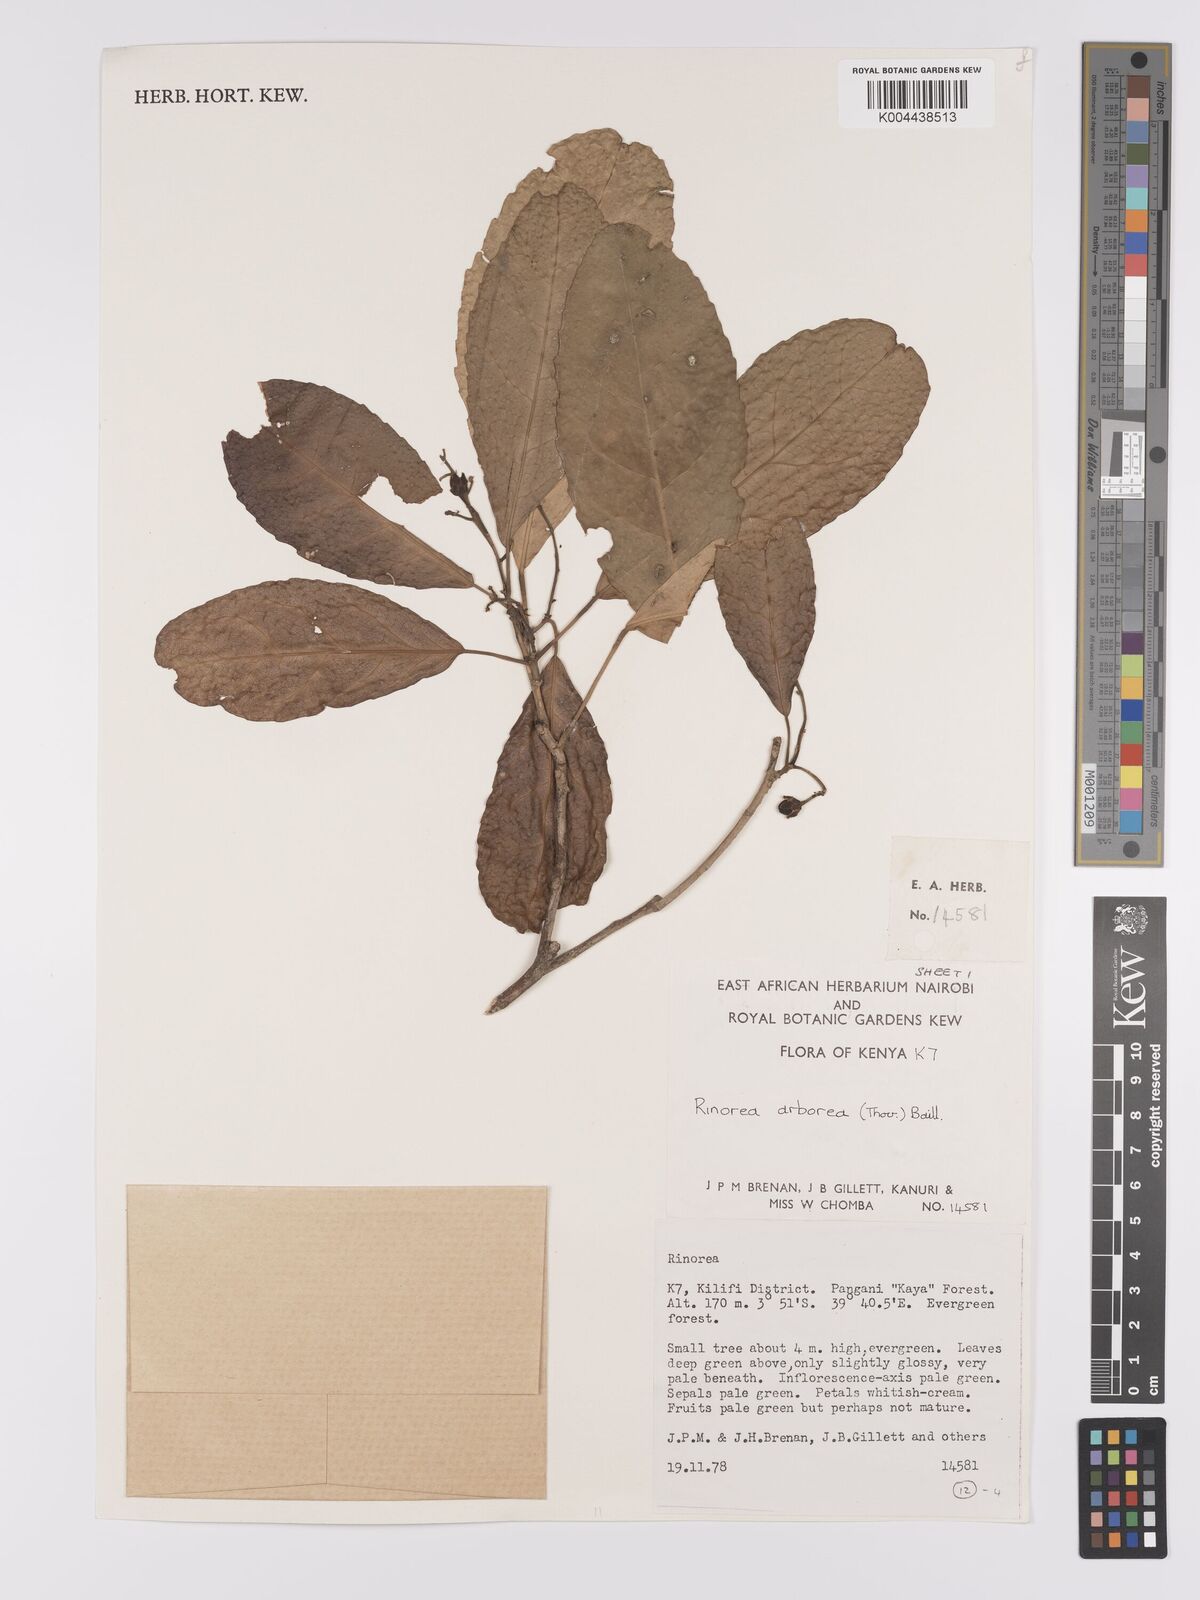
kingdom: Plantae
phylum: Tracheophyta
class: Magnoliopsida
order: Malpighiales
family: Violaceae
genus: Rinorea
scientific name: Rinorea arborea
